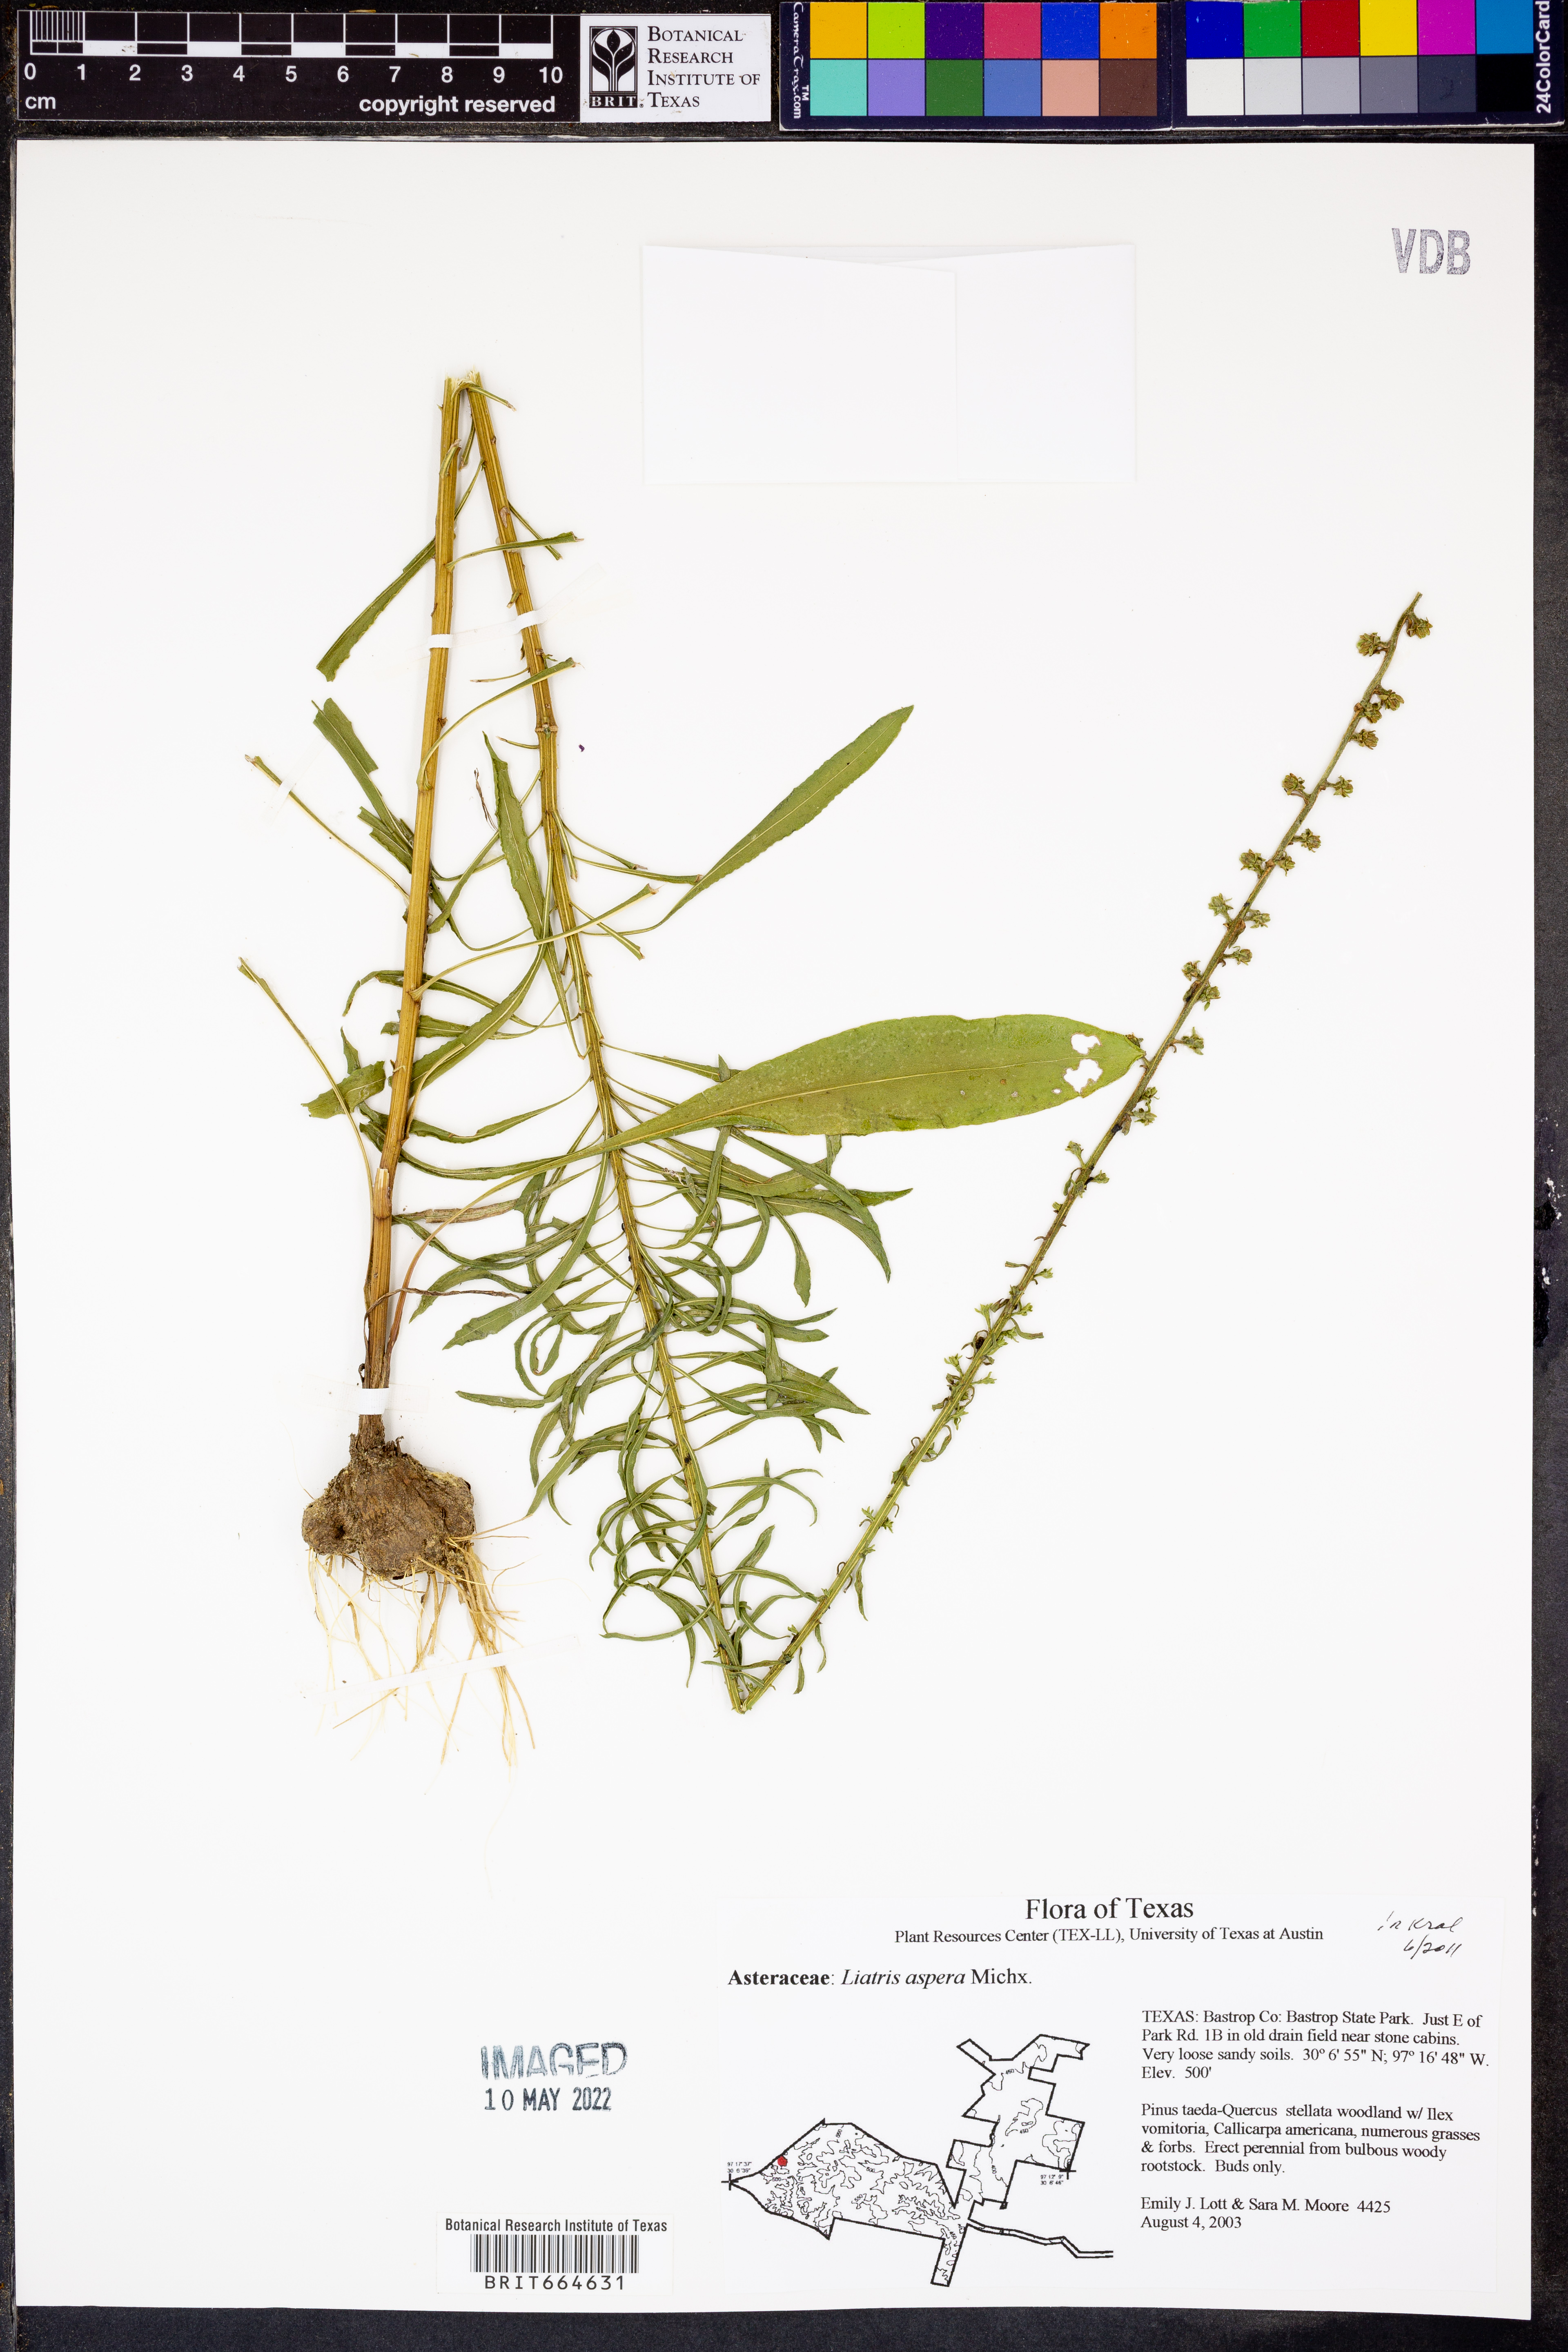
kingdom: Plantae
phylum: Tracheophyta
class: Magnoliopsida
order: Asterales
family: Asteraceae
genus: Liatris
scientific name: Liatris aspera
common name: Lacerate blazing-star
